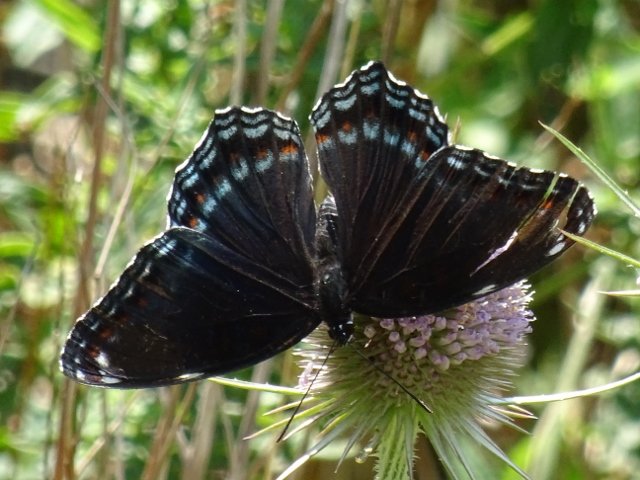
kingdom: Animalia
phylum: Arthropoda
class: Insecta
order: Lepidoptera
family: Nymphalidae
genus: Limenitis
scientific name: Limenitis astyanax
